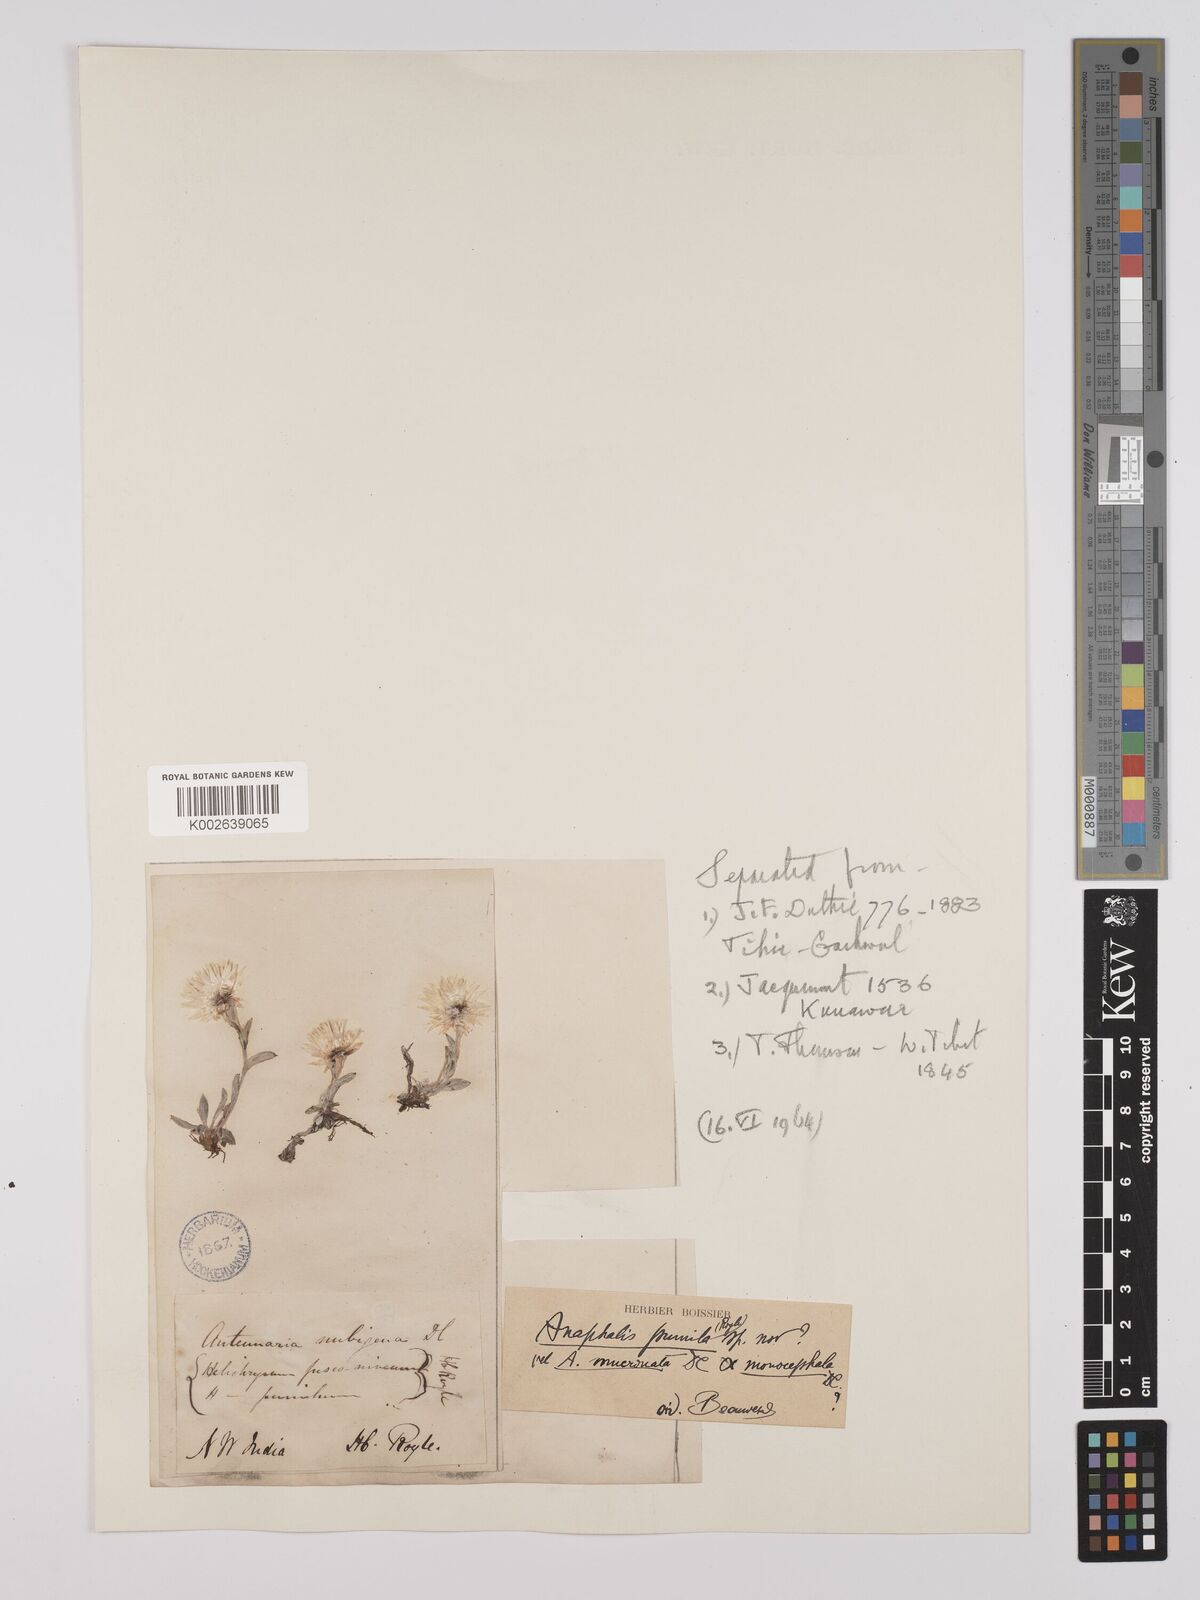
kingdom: Plantae
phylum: Tracheophyta
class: Magnoliopsida
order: Asterales
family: Asteraceae
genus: Anaphalis
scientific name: Anaphalis nepalensis
